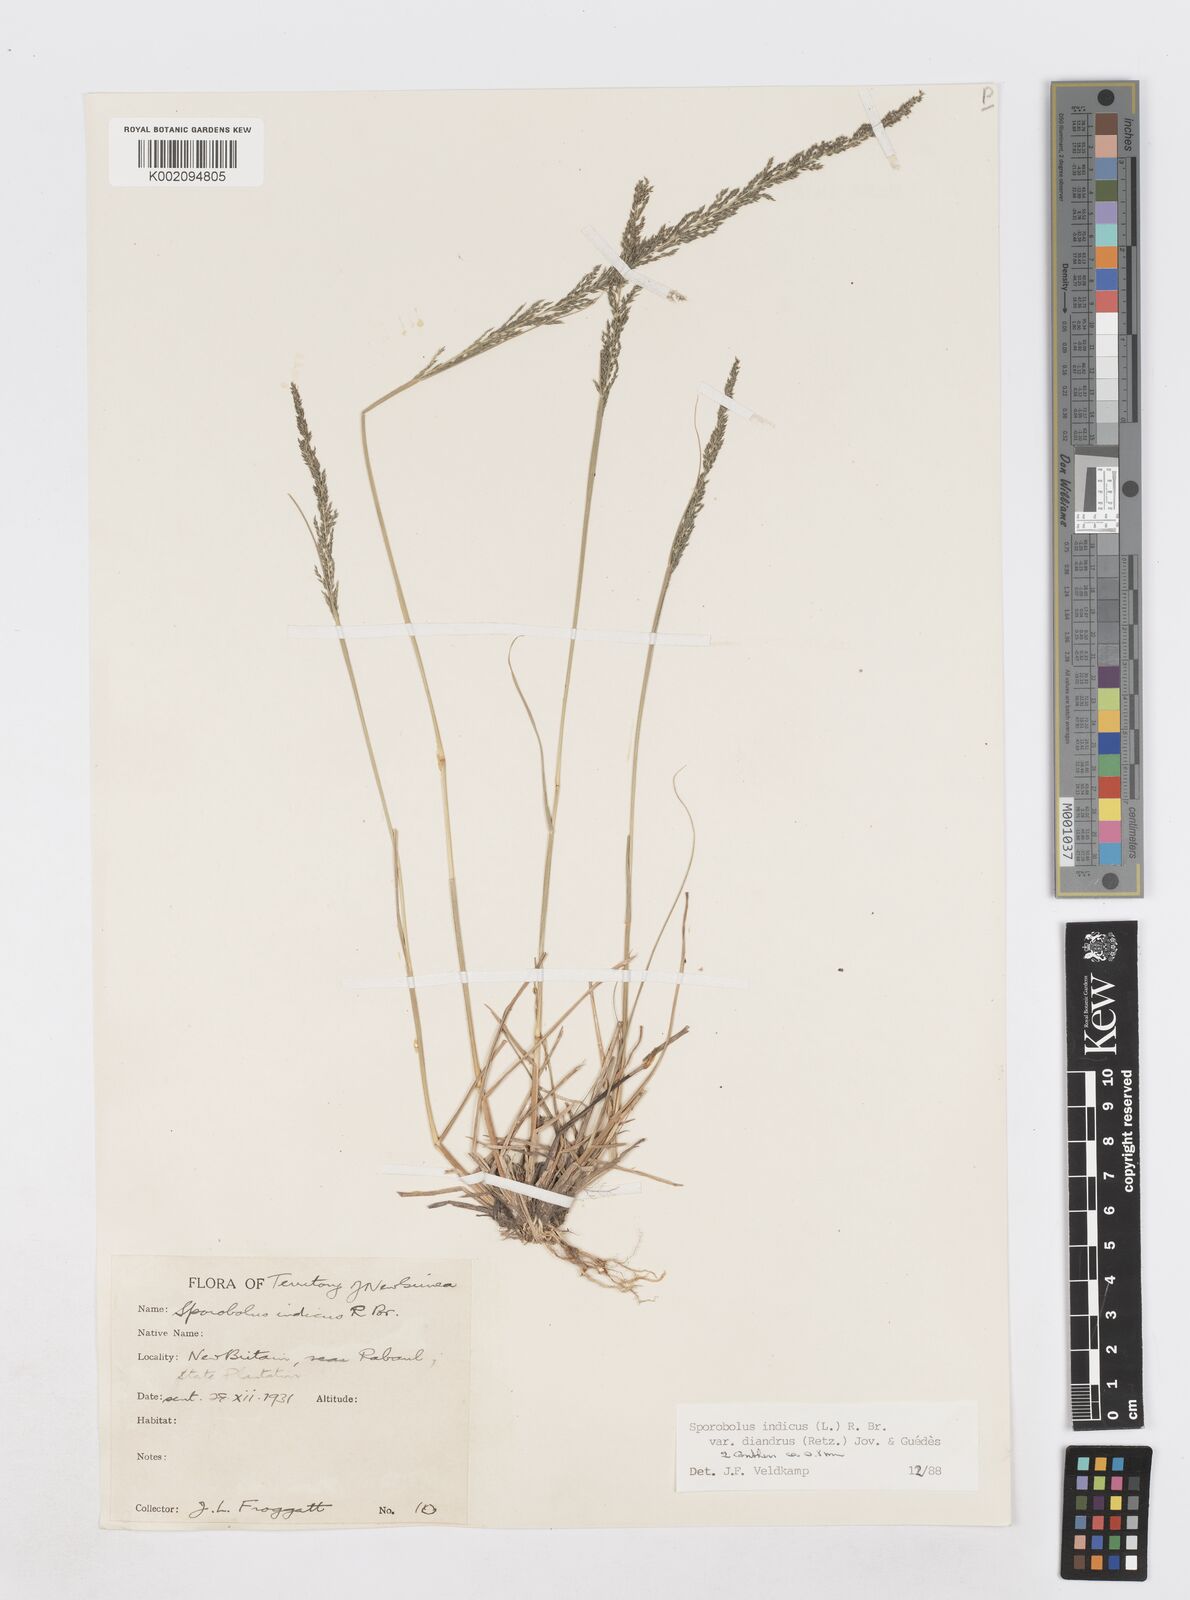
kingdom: Plantae
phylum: Tracheophyta
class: Liliopsida
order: Poales
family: Poaceae
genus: Sporobolus
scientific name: Sporobolus diandrus
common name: Tussock dropseed
